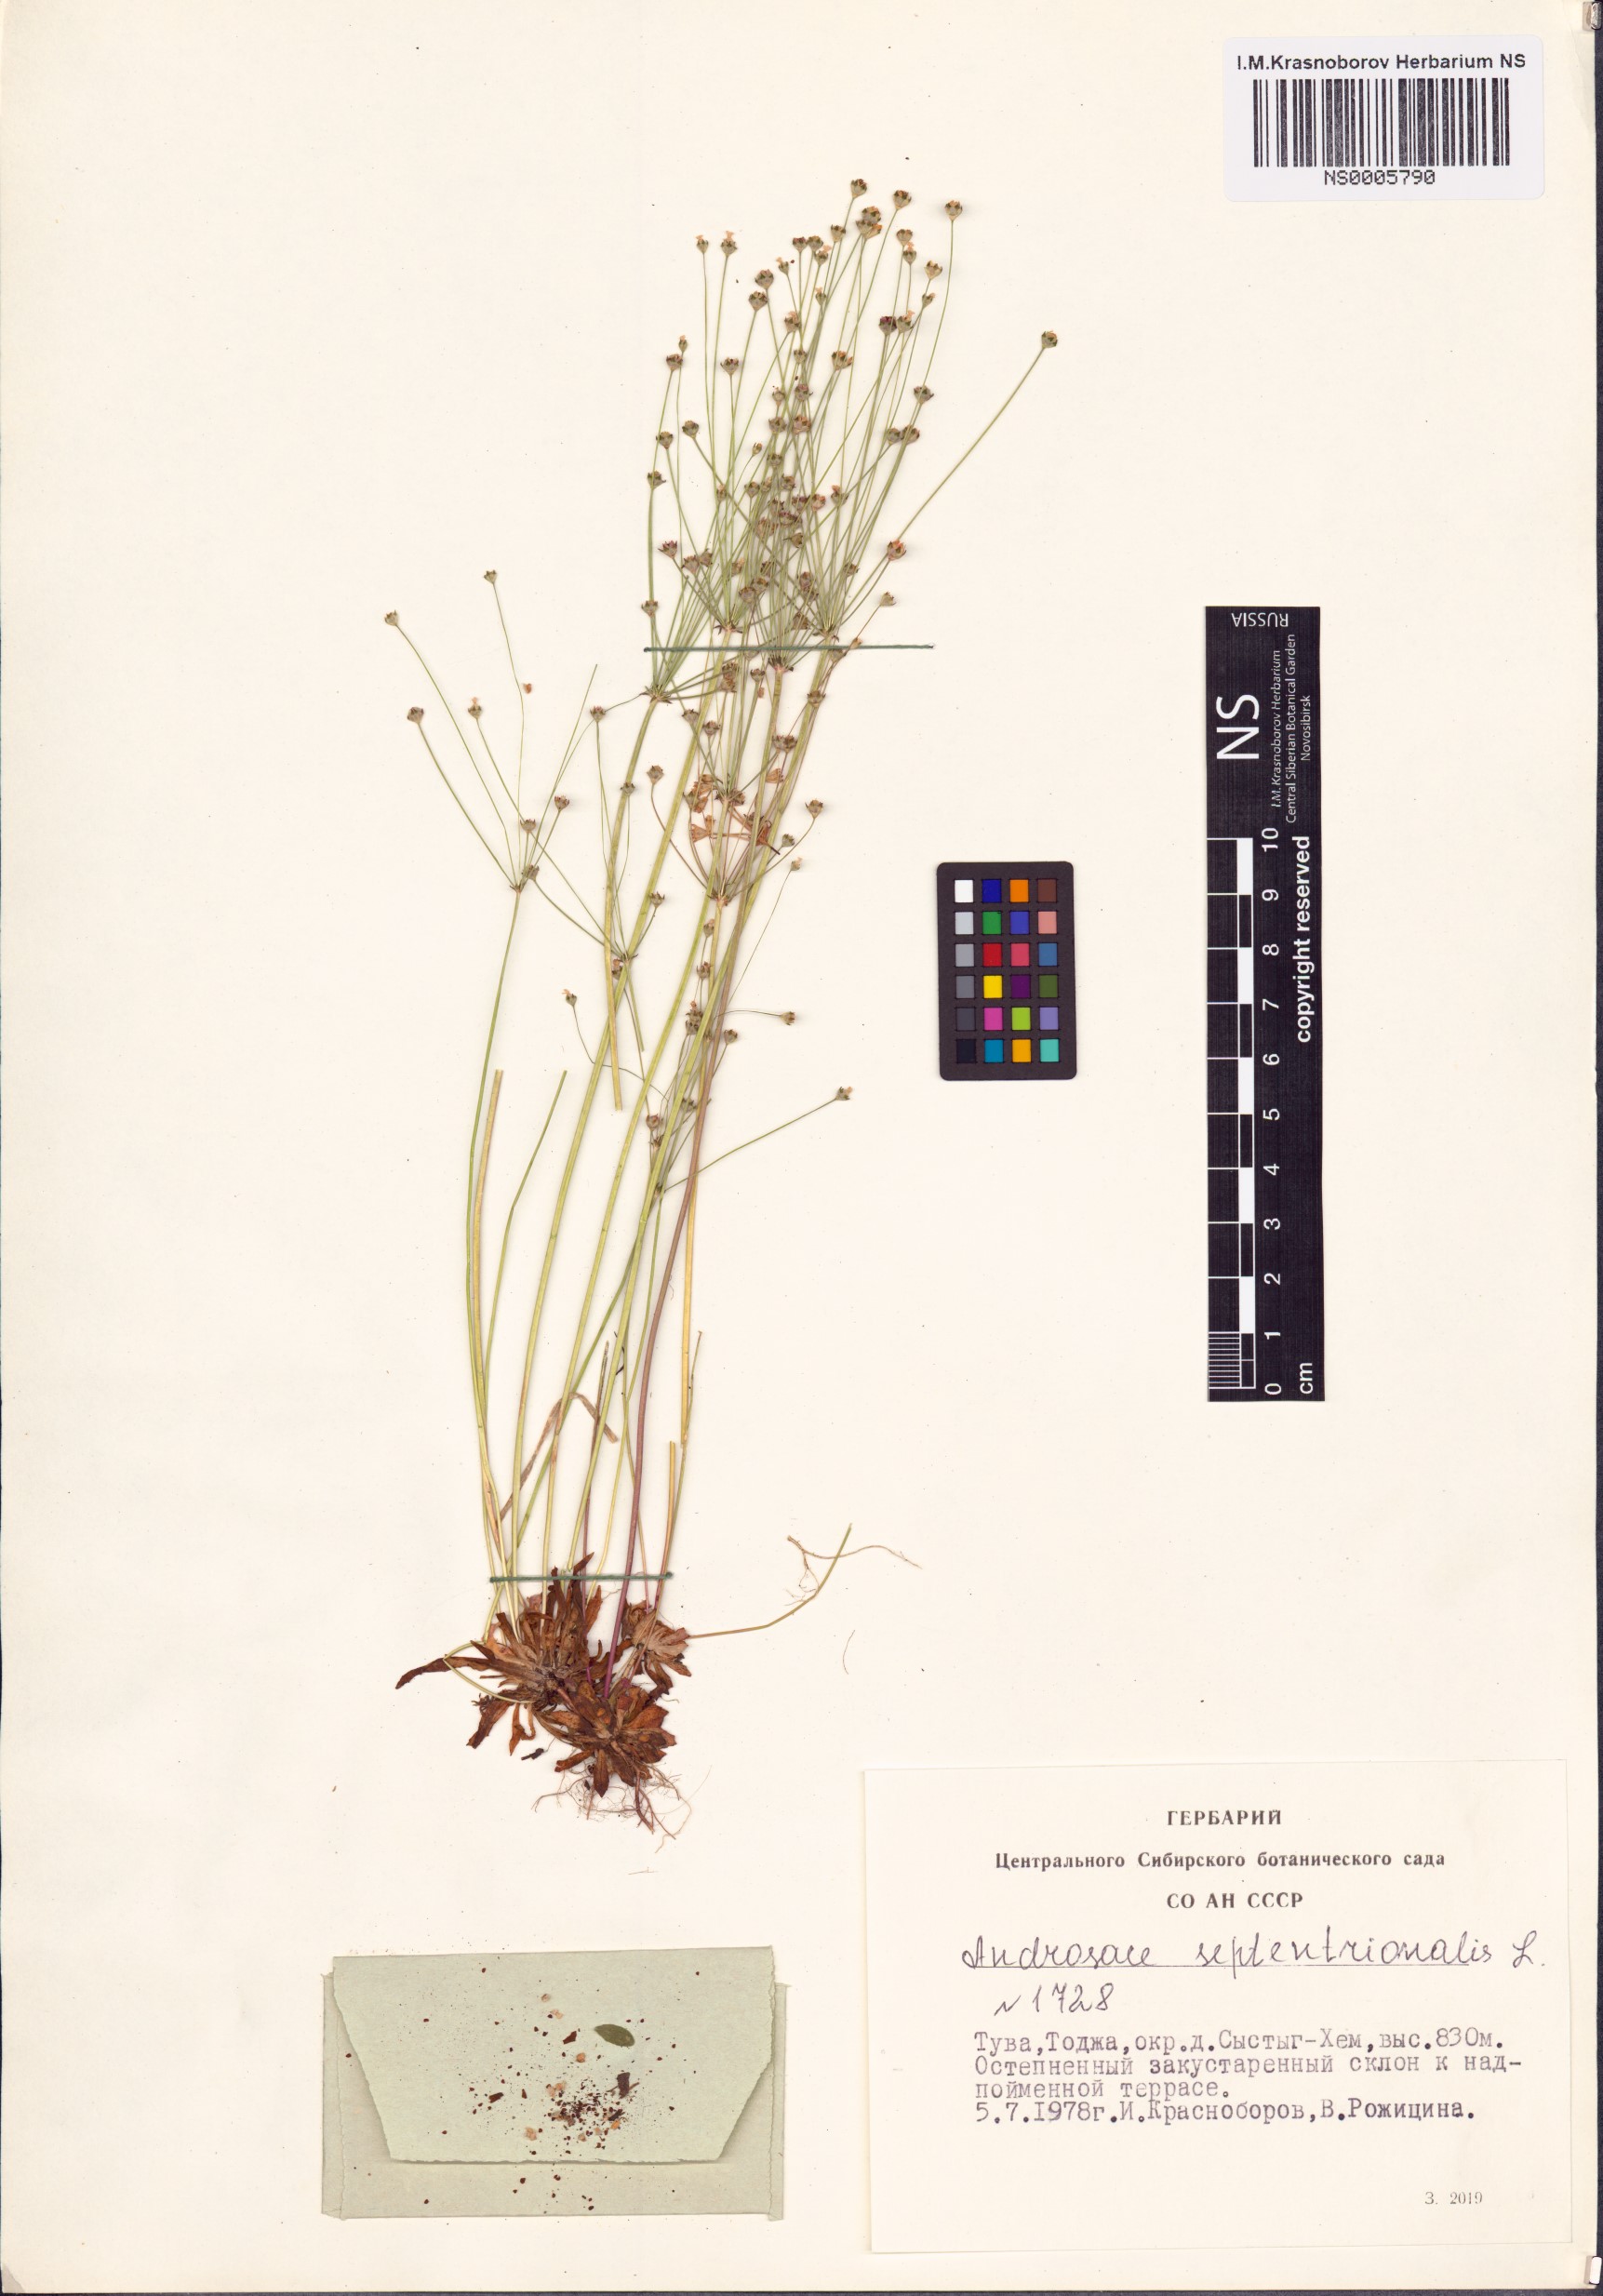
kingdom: Plantae
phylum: Tracheophyta
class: Magnoliopsida
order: Ericales
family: Primulaceae
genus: Androsace
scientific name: Androsace septentrionalis
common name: Hairy northern fairy-candelabra
